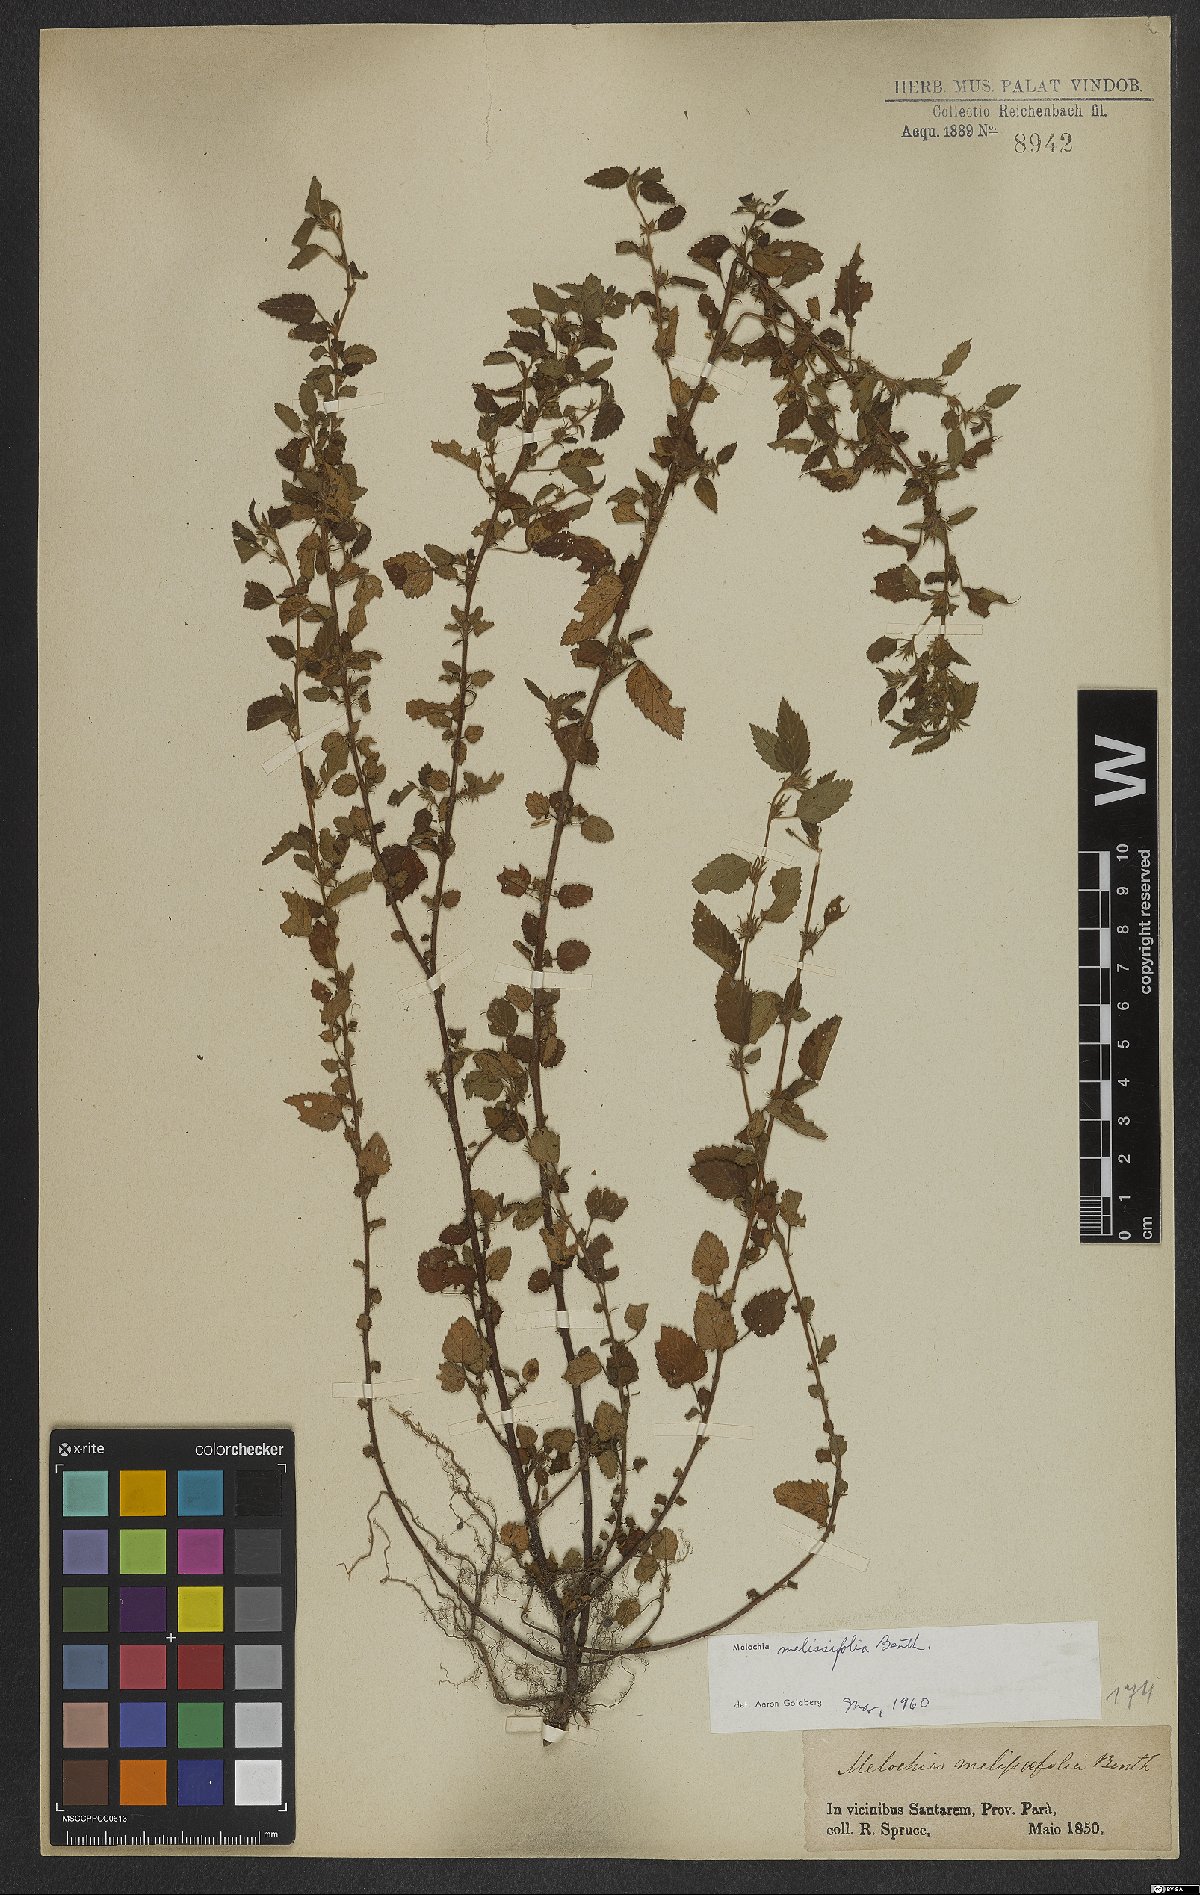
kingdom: Plantae
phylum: Tracheophyta
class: Magnoliopsida
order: Malvales
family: Malvaceae
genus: Melochia
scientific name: Melochia melissifolia
